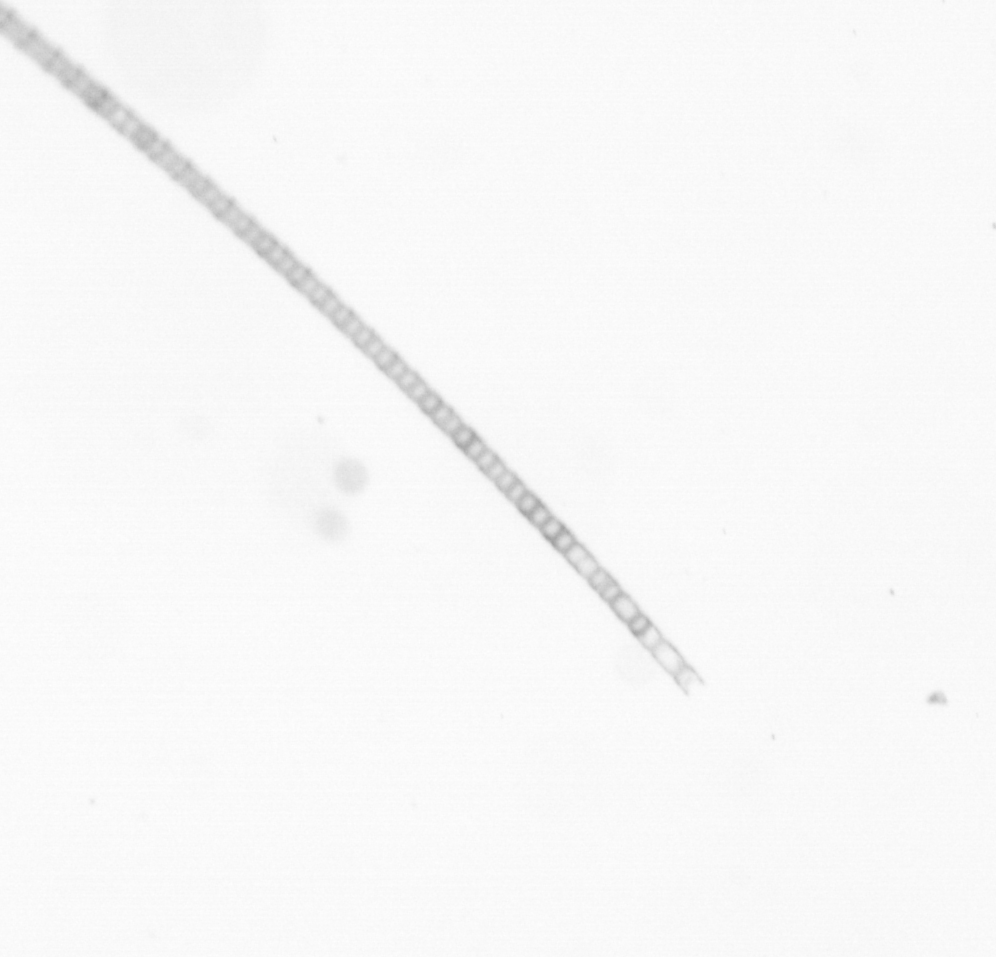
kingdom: Chromista
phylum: Ochrophyta
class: Bacillariophyceae
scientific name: Bacillariophyceae
